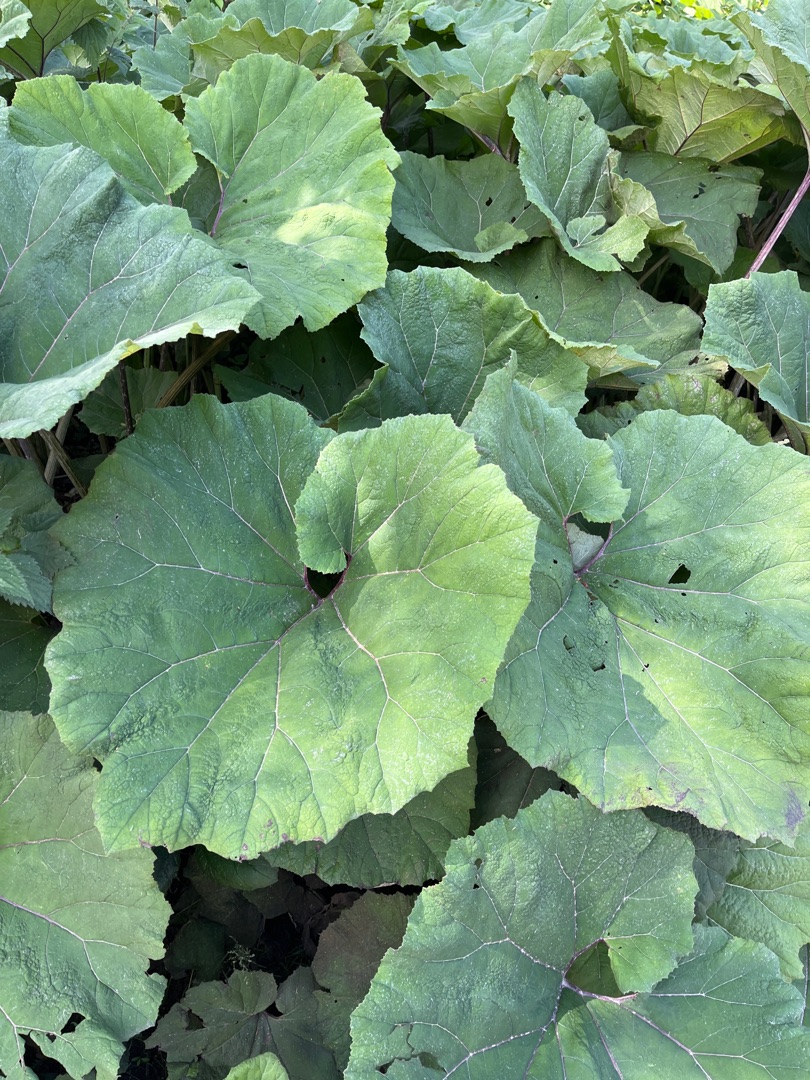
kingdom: Plantae
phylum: Tracheophyta
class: Magnoliopsida
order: Asterales
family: Asteraceae
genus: Petasites
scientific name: Petasites hybridus
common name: Rød hestehov
